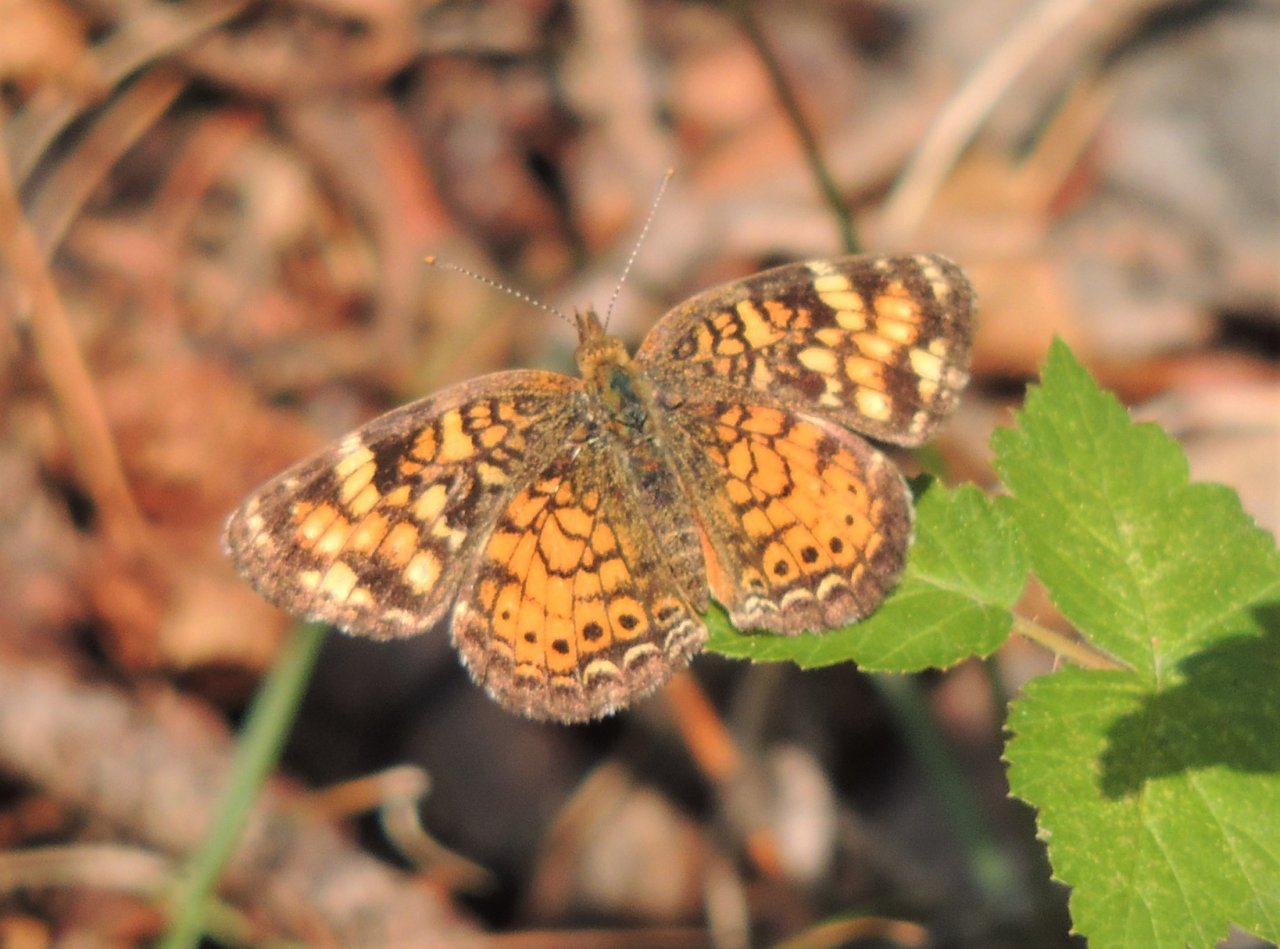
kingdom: Animalia
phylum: Arthropoda
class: Insecta
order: Lepidoptera
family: Nymphalidae
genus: Eresia
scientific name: Eresia aveyrona
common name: Mylitta Crescent
